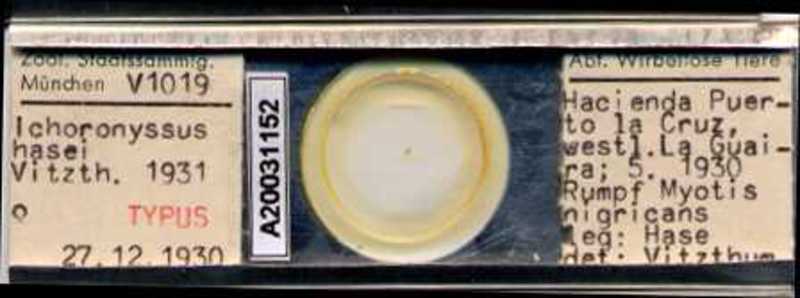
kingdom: Animalia
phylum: Arthropoda
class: Arachnida
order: Mesostigmata
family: Macronyssidae
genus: Macronyssus
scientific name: Macronyssus crosbyi
